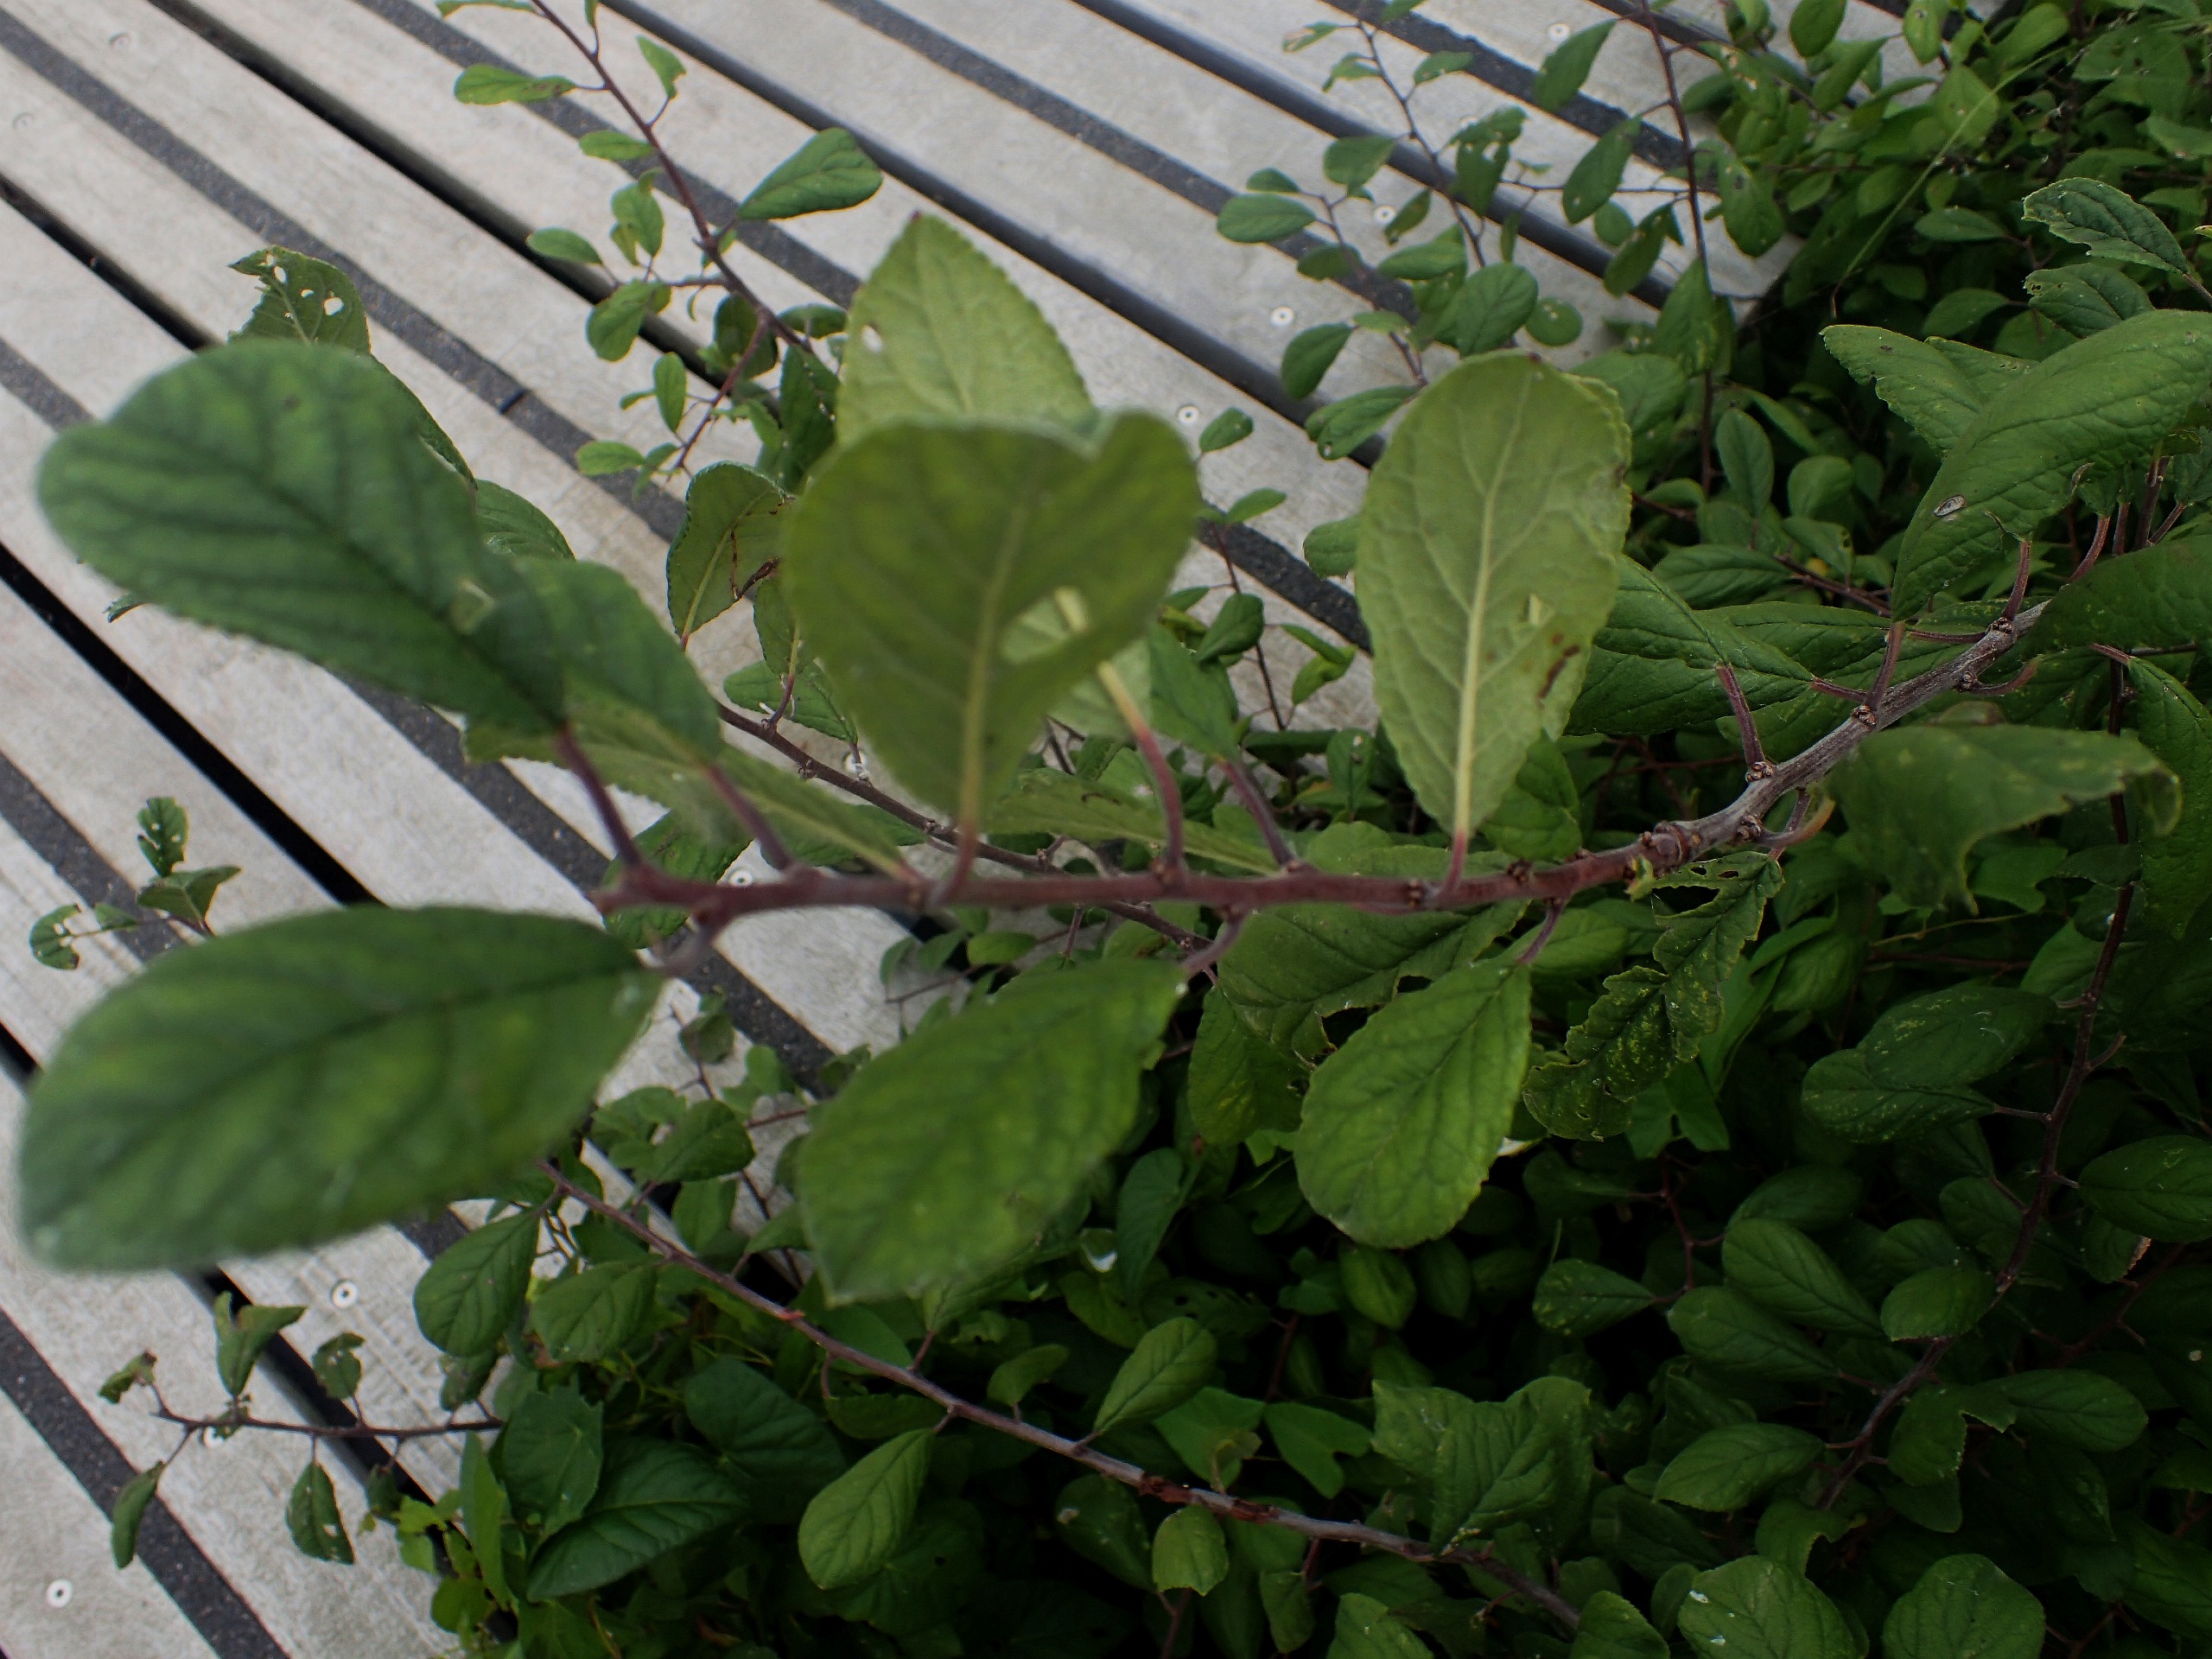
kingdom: Plantae
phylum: Tracheophyta
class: Magnoliopsida
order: Rosales
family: Rosaceae
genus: Prunus
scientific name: Prunus
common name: Blommeslægten
